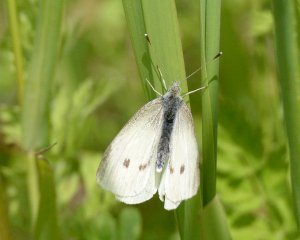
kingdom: Animalia
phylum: Arthropoda
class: Insecta
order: Lepidoptera
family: Pieridae
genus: Pieris
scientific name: Pieris rapae
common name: Cabbage White
